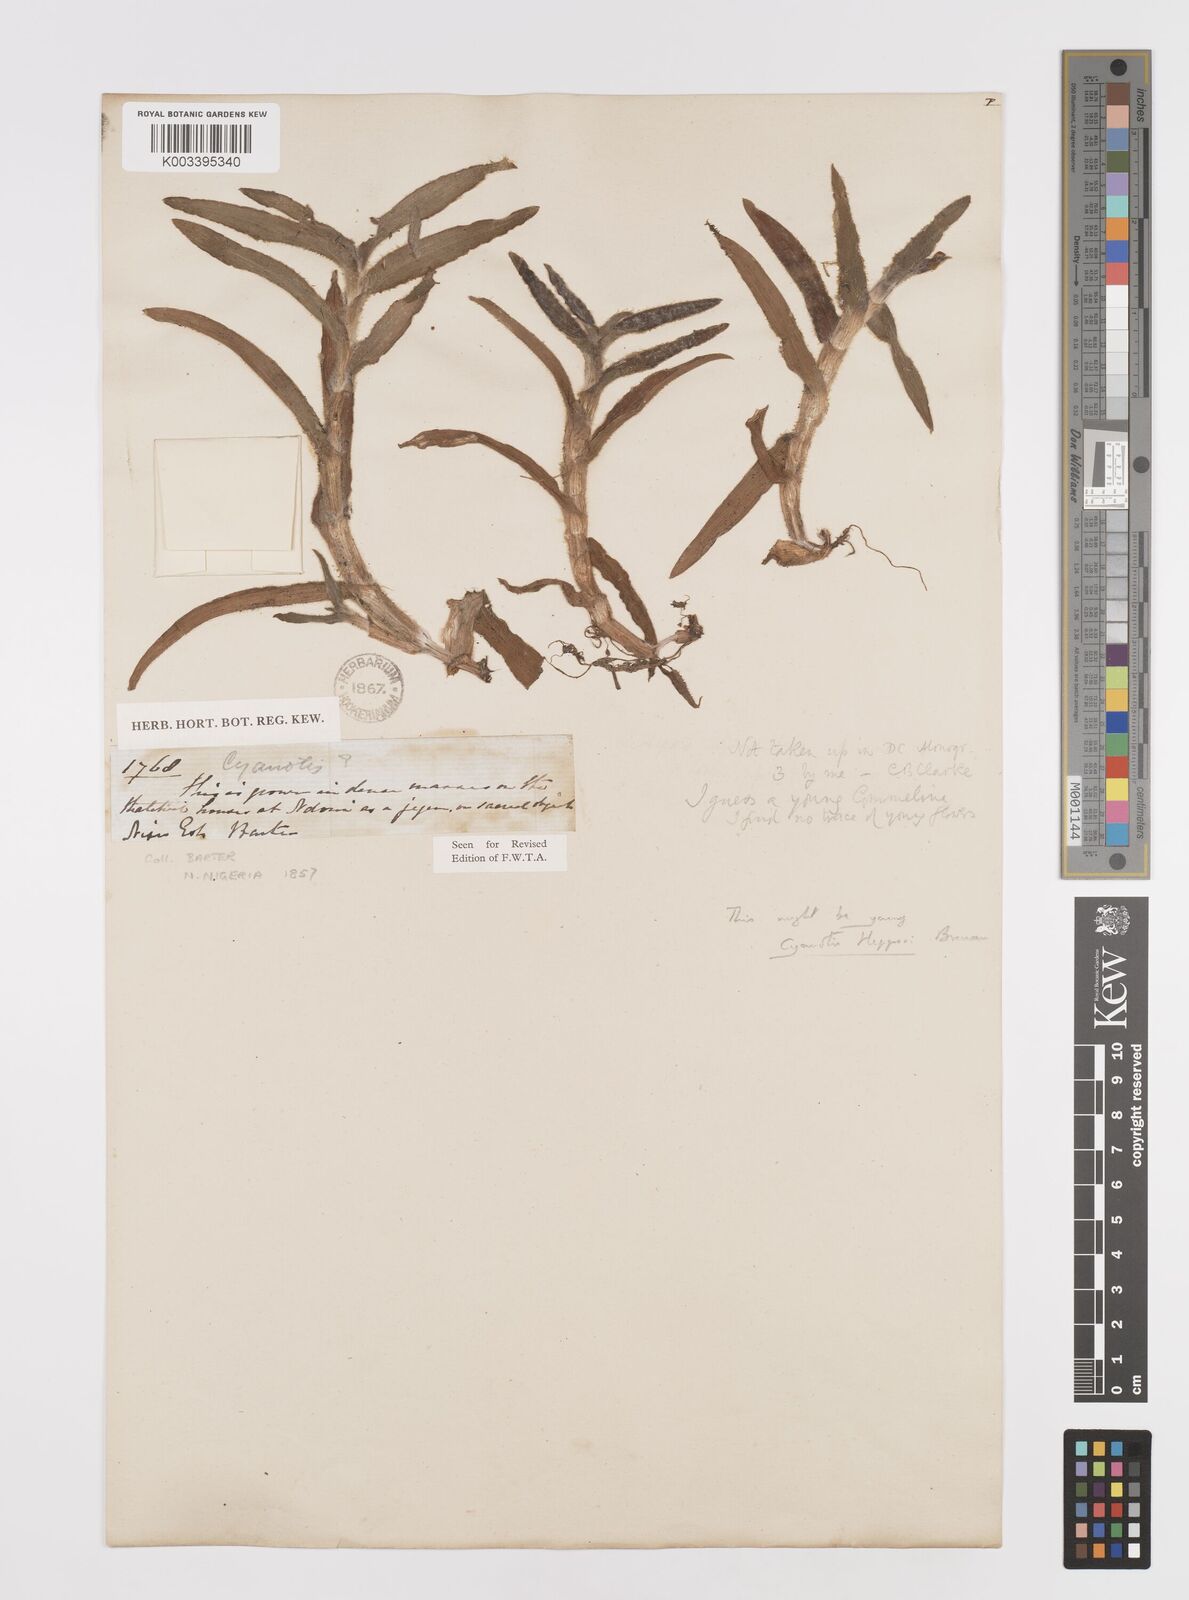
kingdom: Plantae
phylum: Tracheophyta
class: Liliopsida
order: Commelinales
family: Commelinaceae
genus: Cyanotis
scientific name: Cyanotis hepperi
